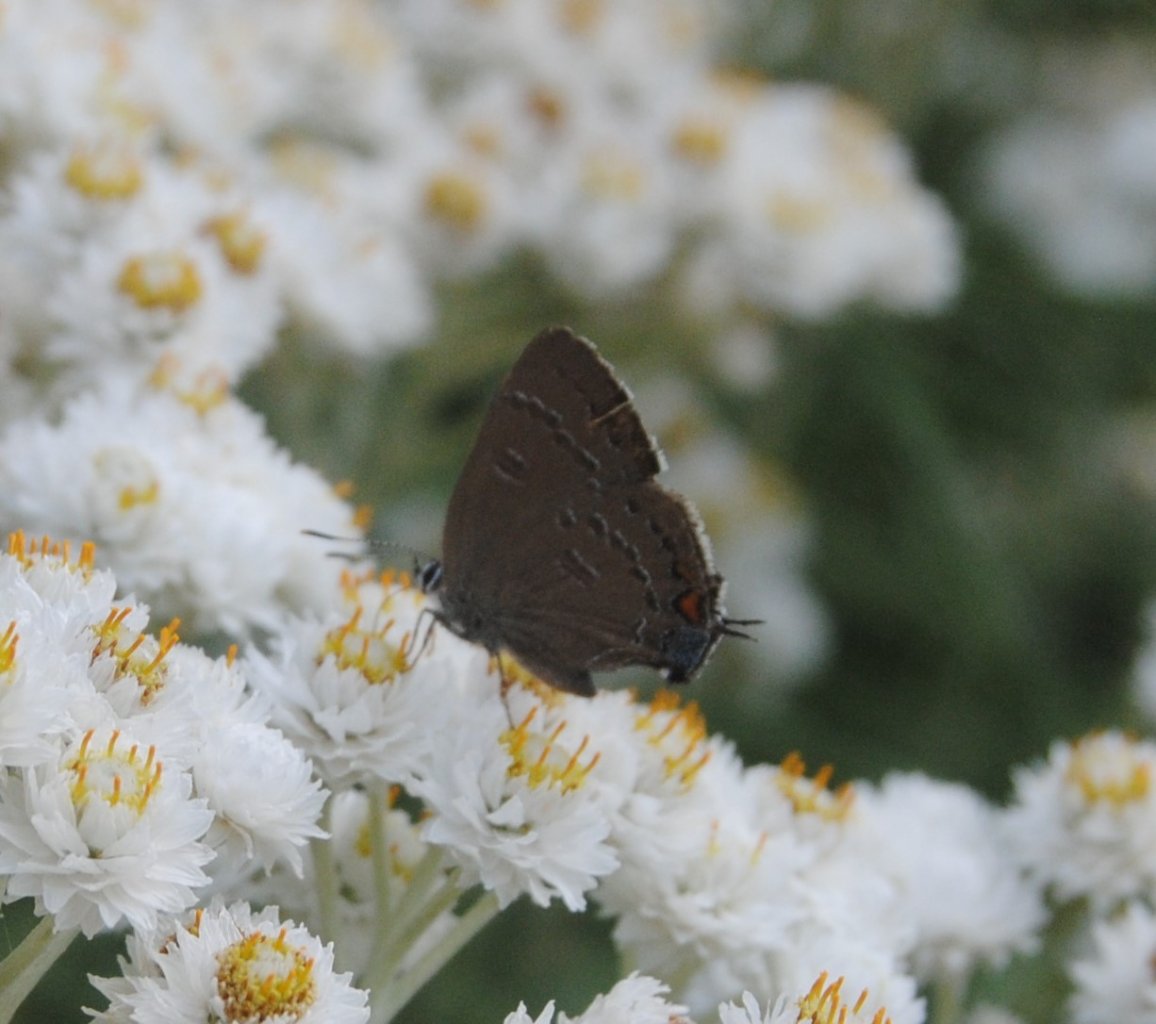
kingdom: Animalia
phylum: Arthropoda
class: Insecta
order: Lepidoptera
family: Lycaenidae
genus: Satyrium
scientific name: Satyrium calanus
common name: Banded Hairstreak
